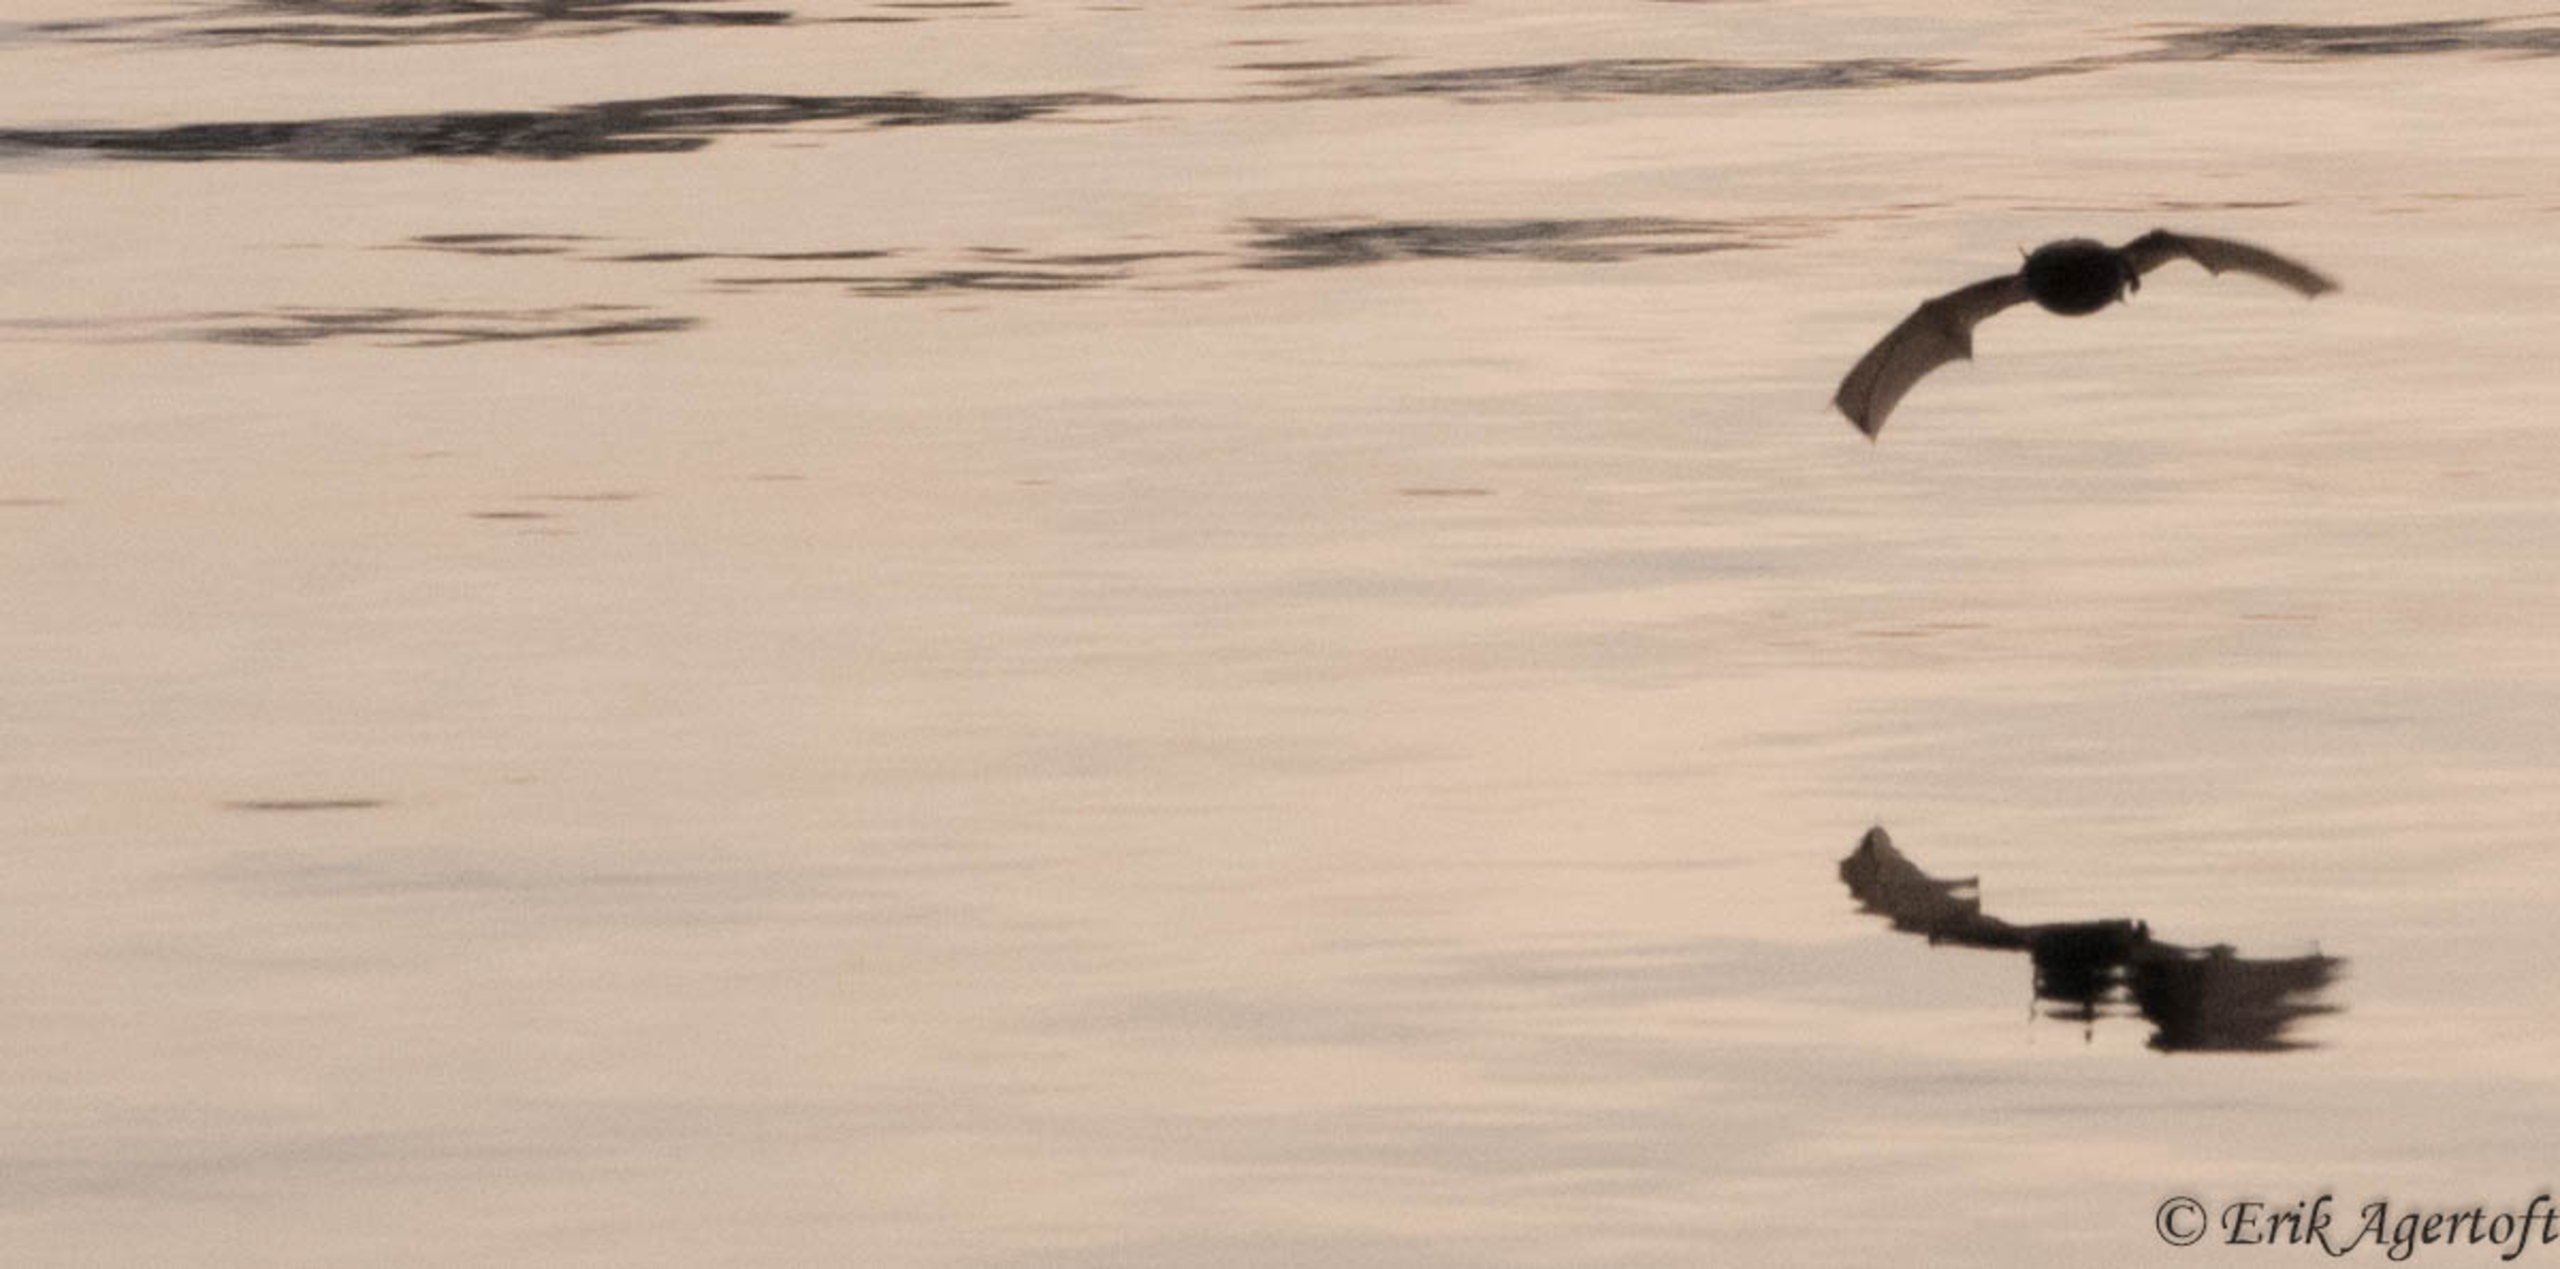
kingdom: Animalia
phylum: Chordata
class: Mammalia
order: Chiroptera
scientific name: Chiroptera
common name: Flagermus
